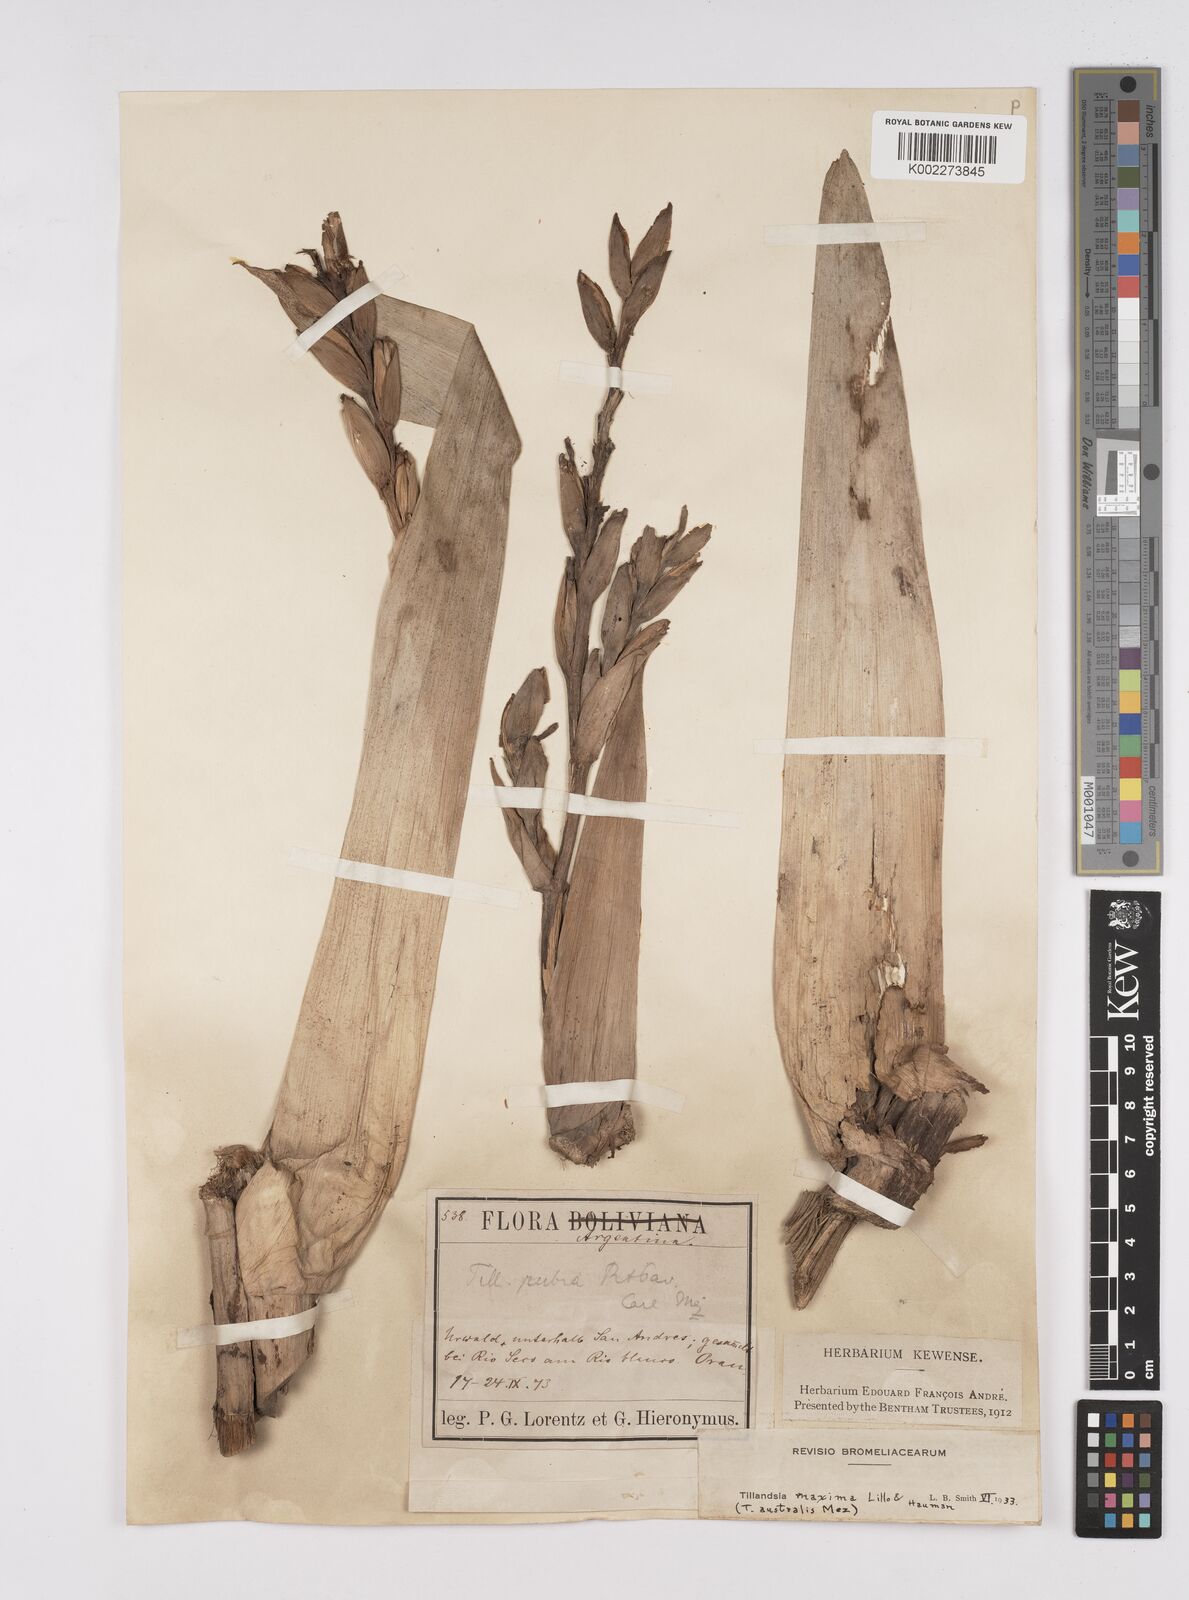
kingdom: Plantae
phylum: Tracheophyta
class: Liliopsida
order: Poales
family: Bromeliaceae
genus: Tillandsia
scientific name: Tillandsia australis
